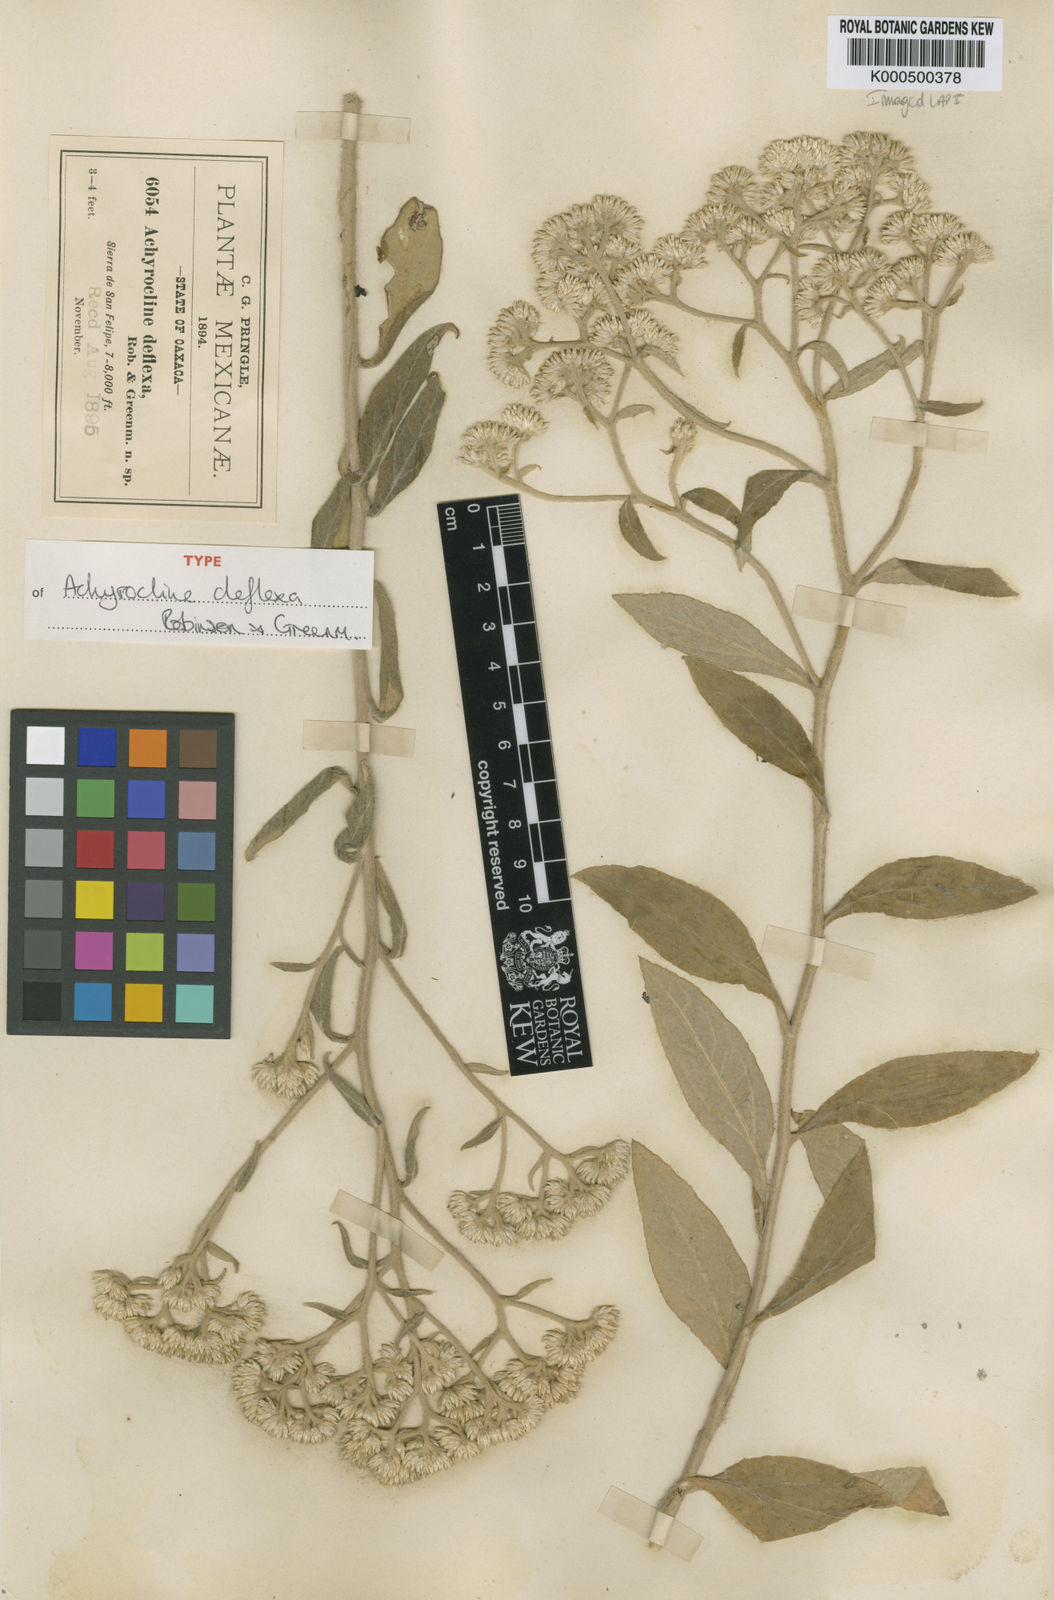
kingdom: Plantae
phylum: Tracheophyta
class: Magnoliopsida
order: Asterales
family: Asteraceae
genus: Achyrocline
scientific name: Achyrocline deflexa
